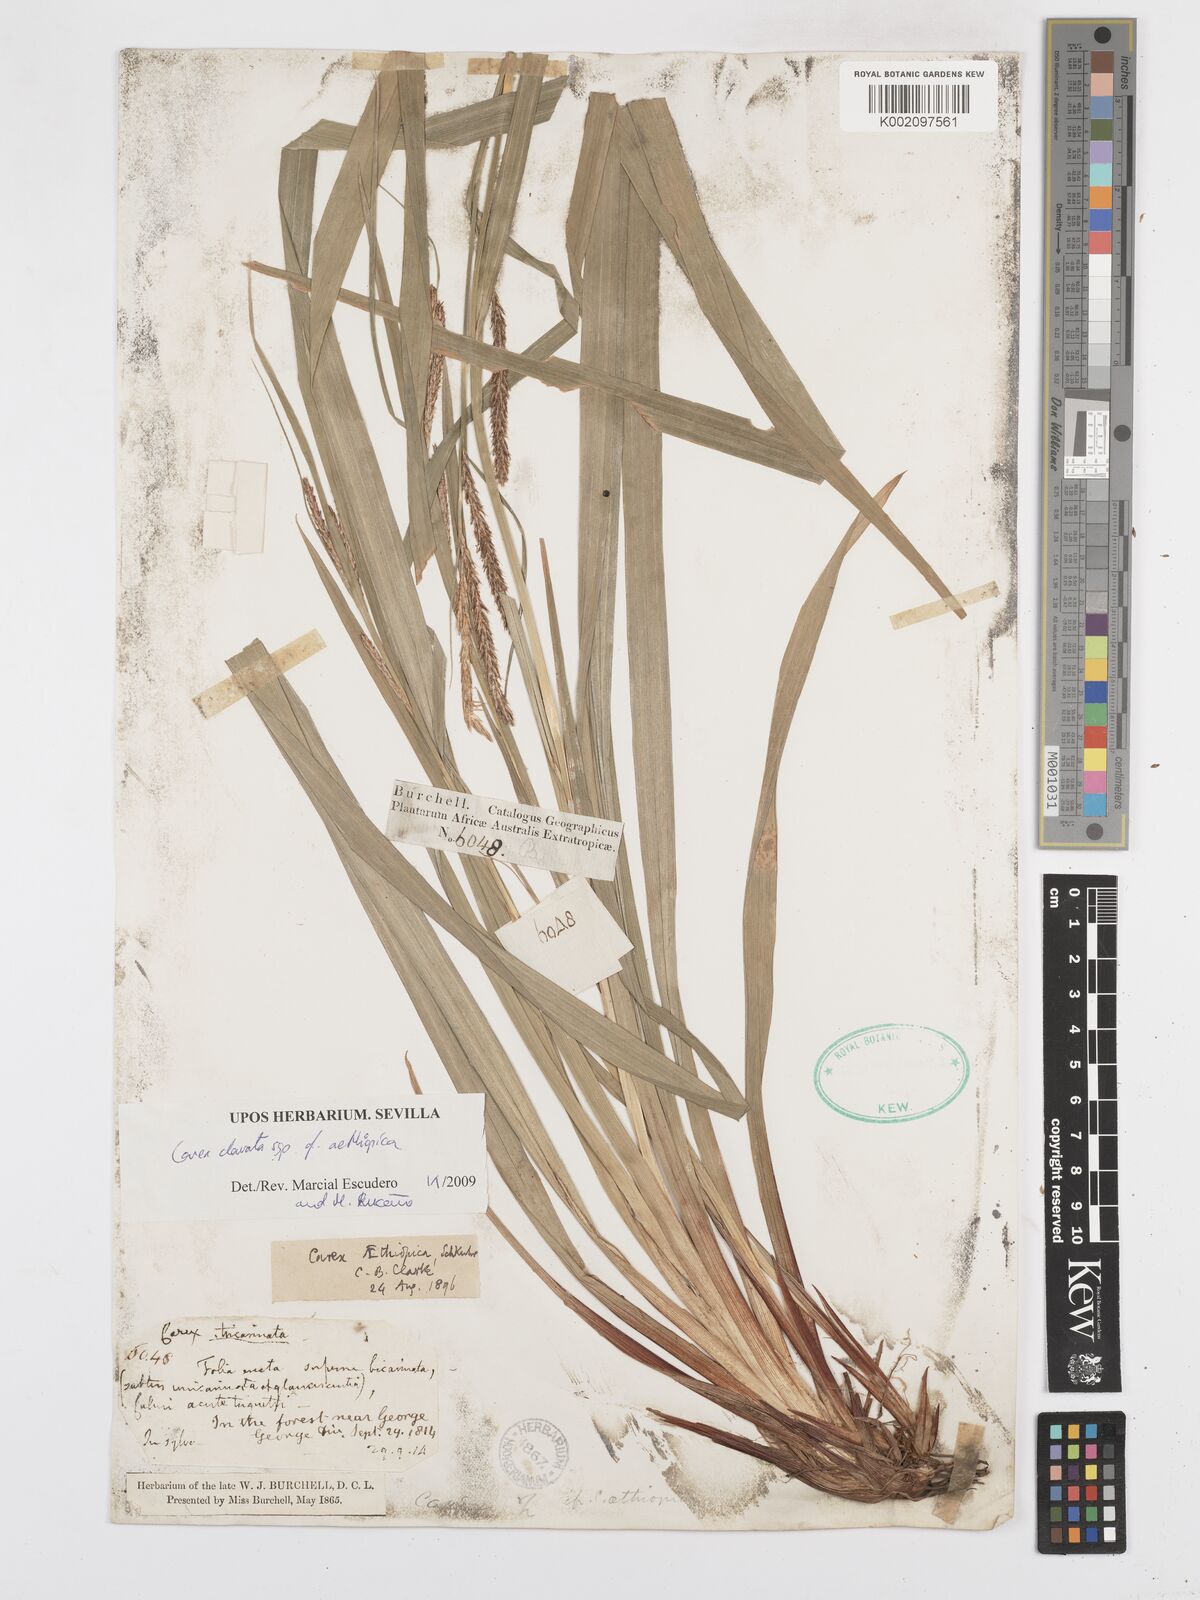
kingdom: Plantae
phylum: Tracheophyta
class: Liliopsida
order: Poales
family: Cyperaceae
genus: Carex
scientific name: Carex aethiopica
